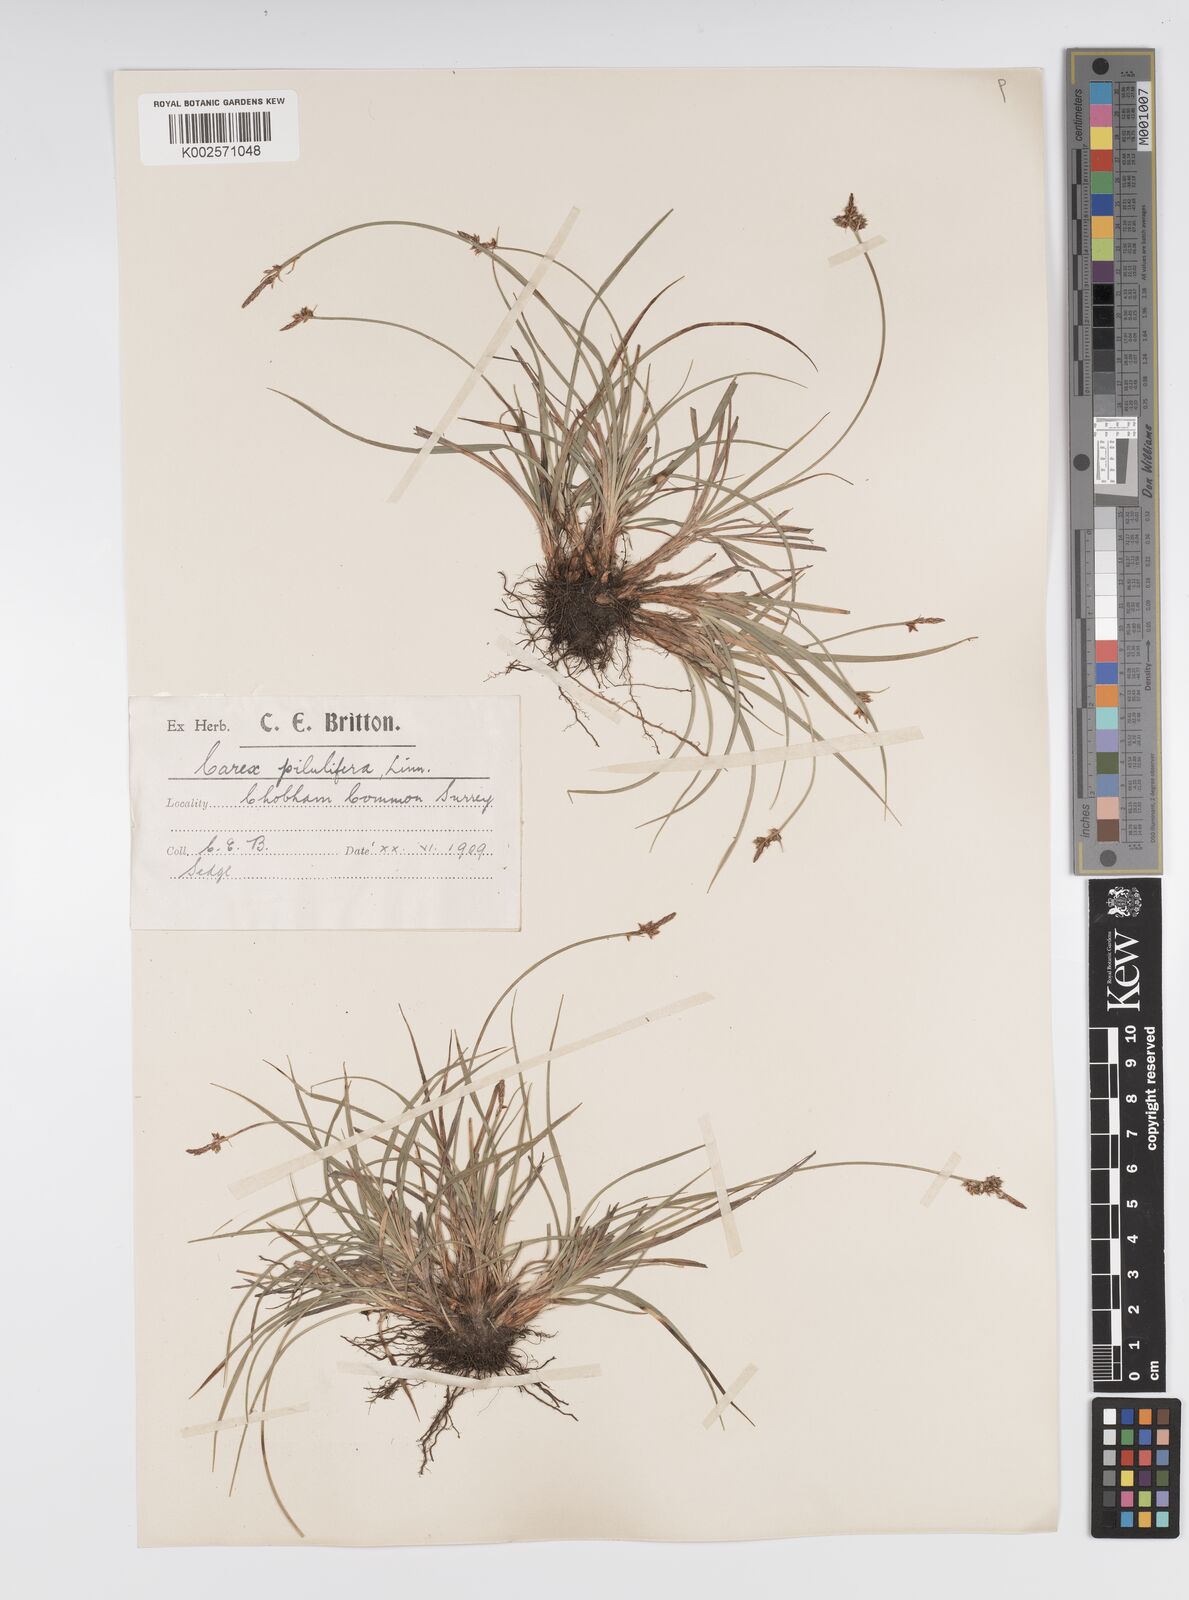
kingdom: Plantae
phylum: Tracheophyta
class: Liliopsida
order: Poales
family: Cyperaceae
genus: Carex
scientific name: Carex pilulifera
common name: Pill sedge
